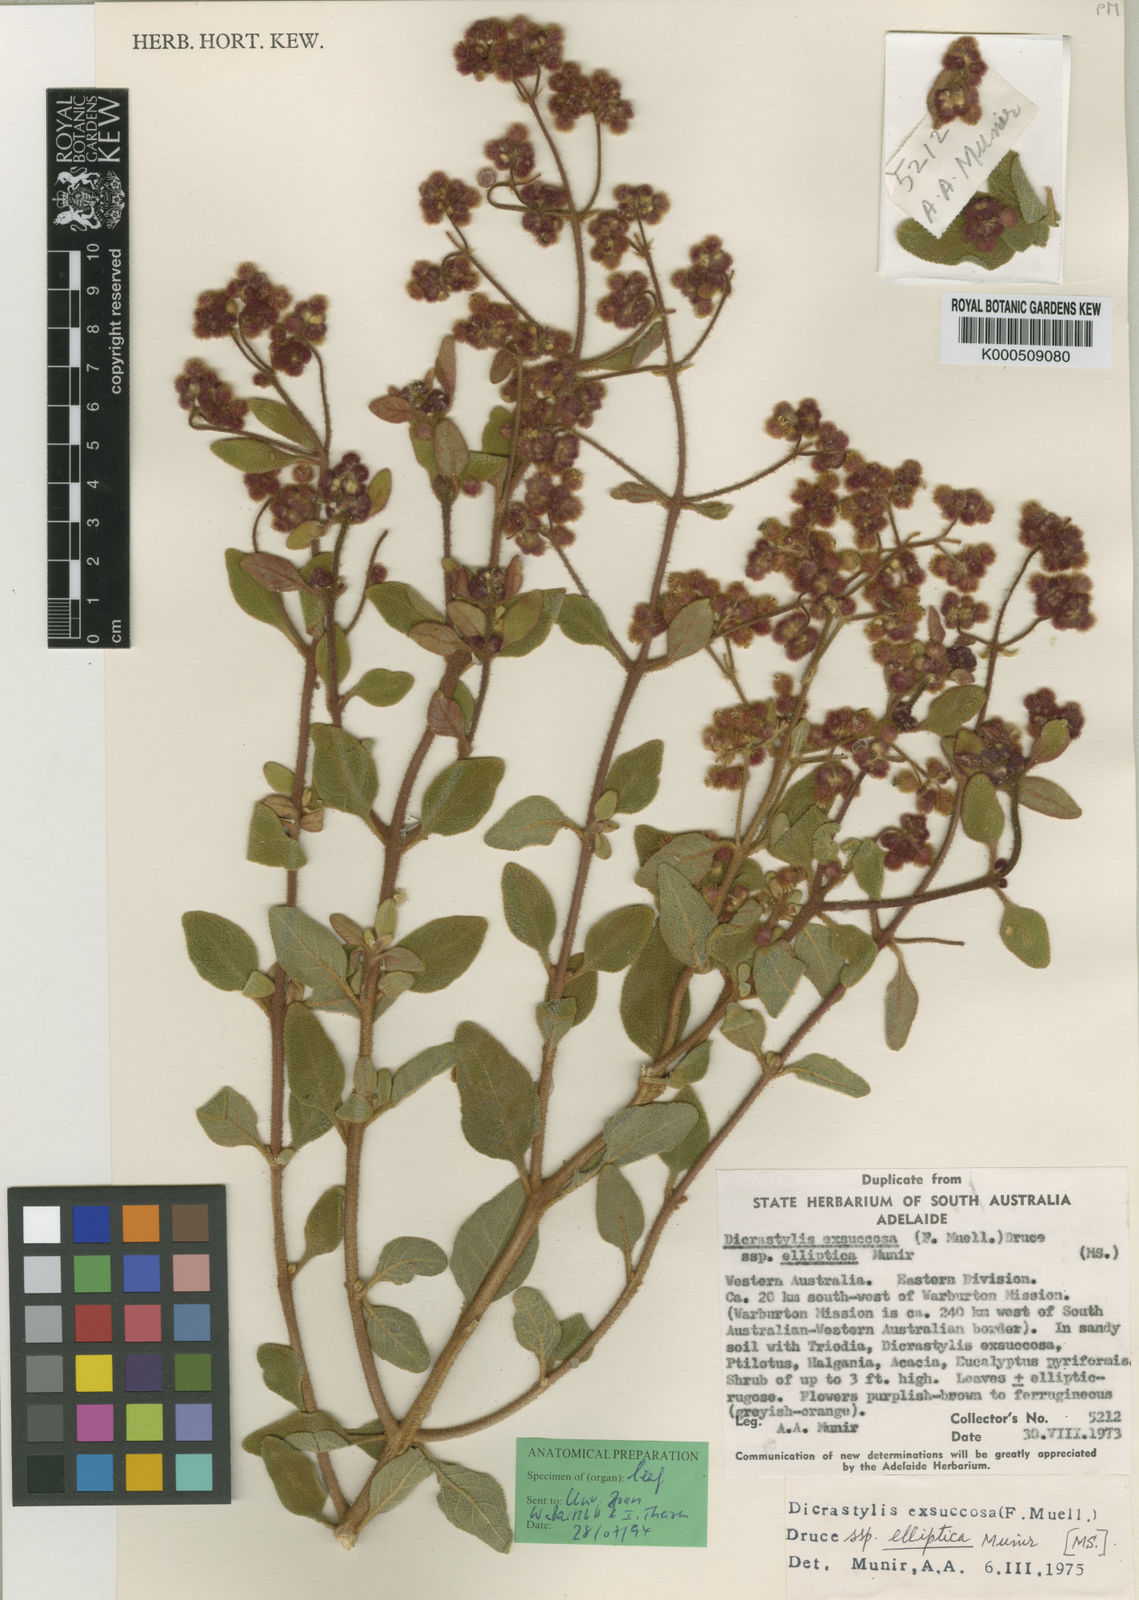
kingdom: Plantae
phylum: Tracheophyta
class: Magnoliopsida
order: Lamiales
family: Lamiaceae
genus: Dicrastylis
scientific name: Dicrastylis exsuccosa
